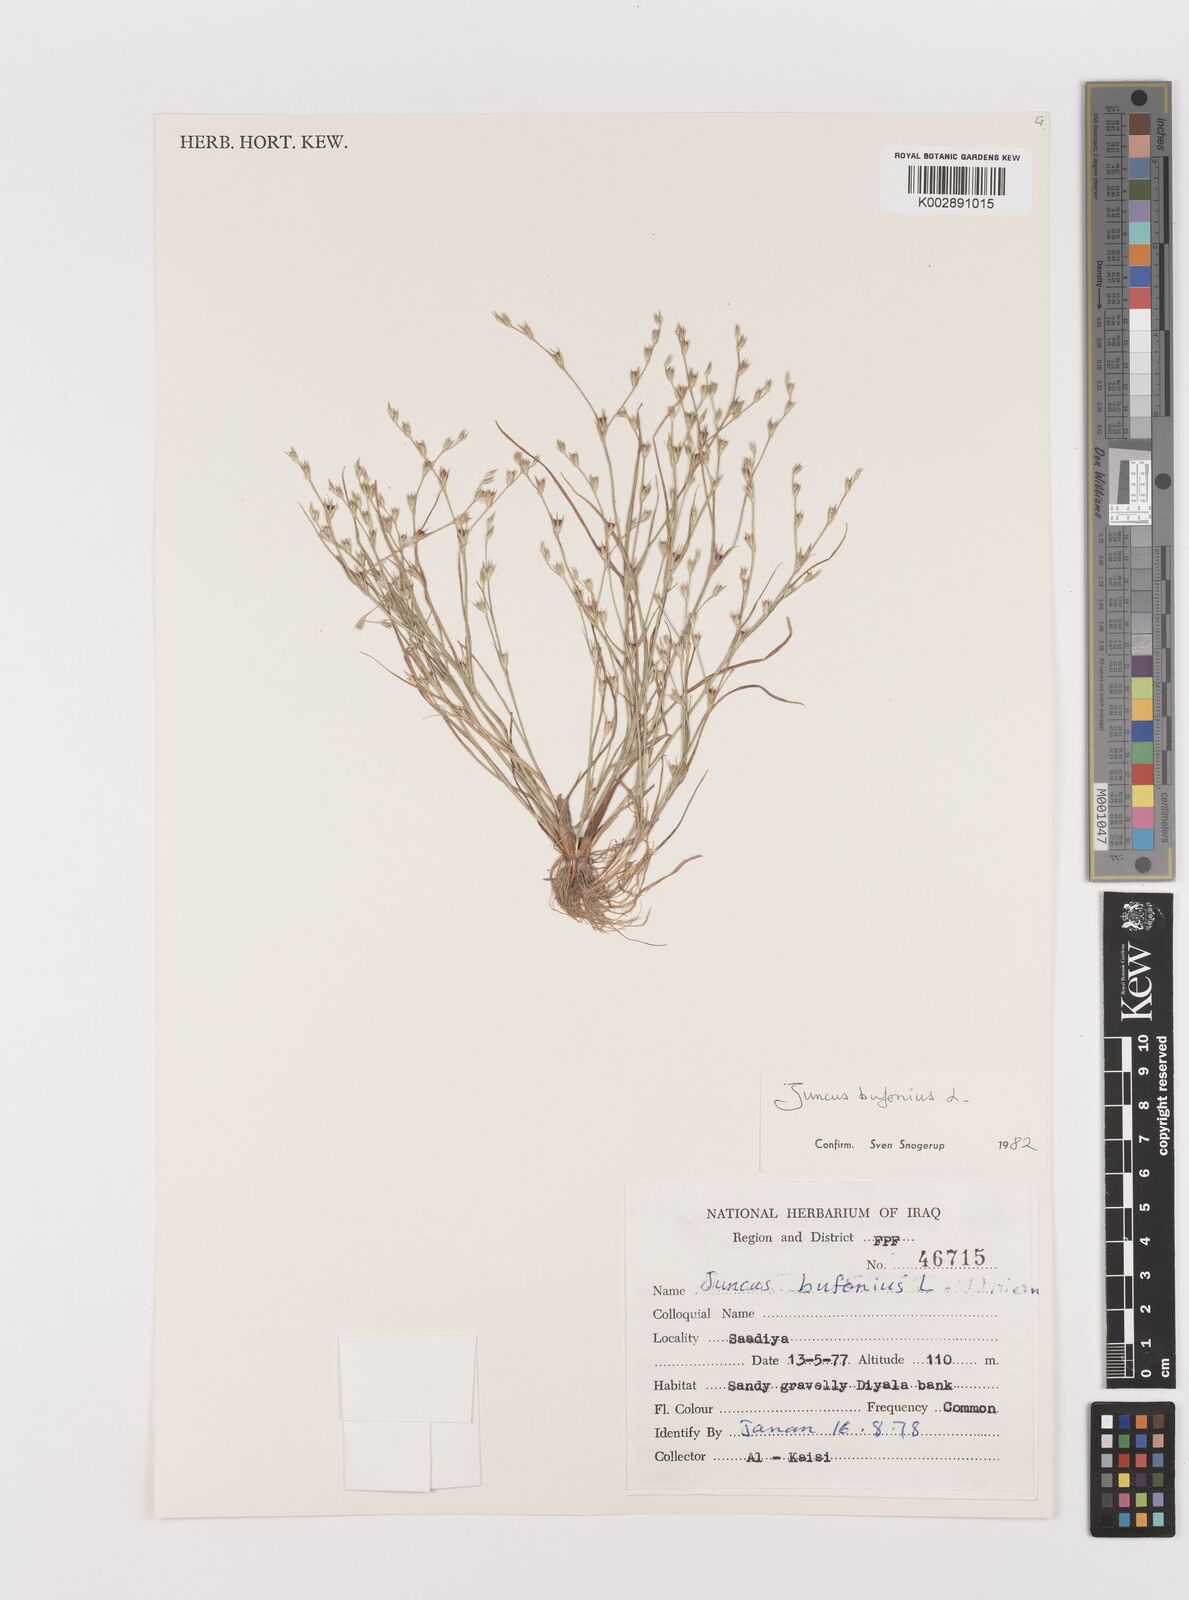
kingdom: Plantae
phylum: Tracheophyta
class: Liliopsida
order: Poales
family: Juncaceae
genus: Juncus
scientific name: Juncus bufonius
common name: Toad rush
